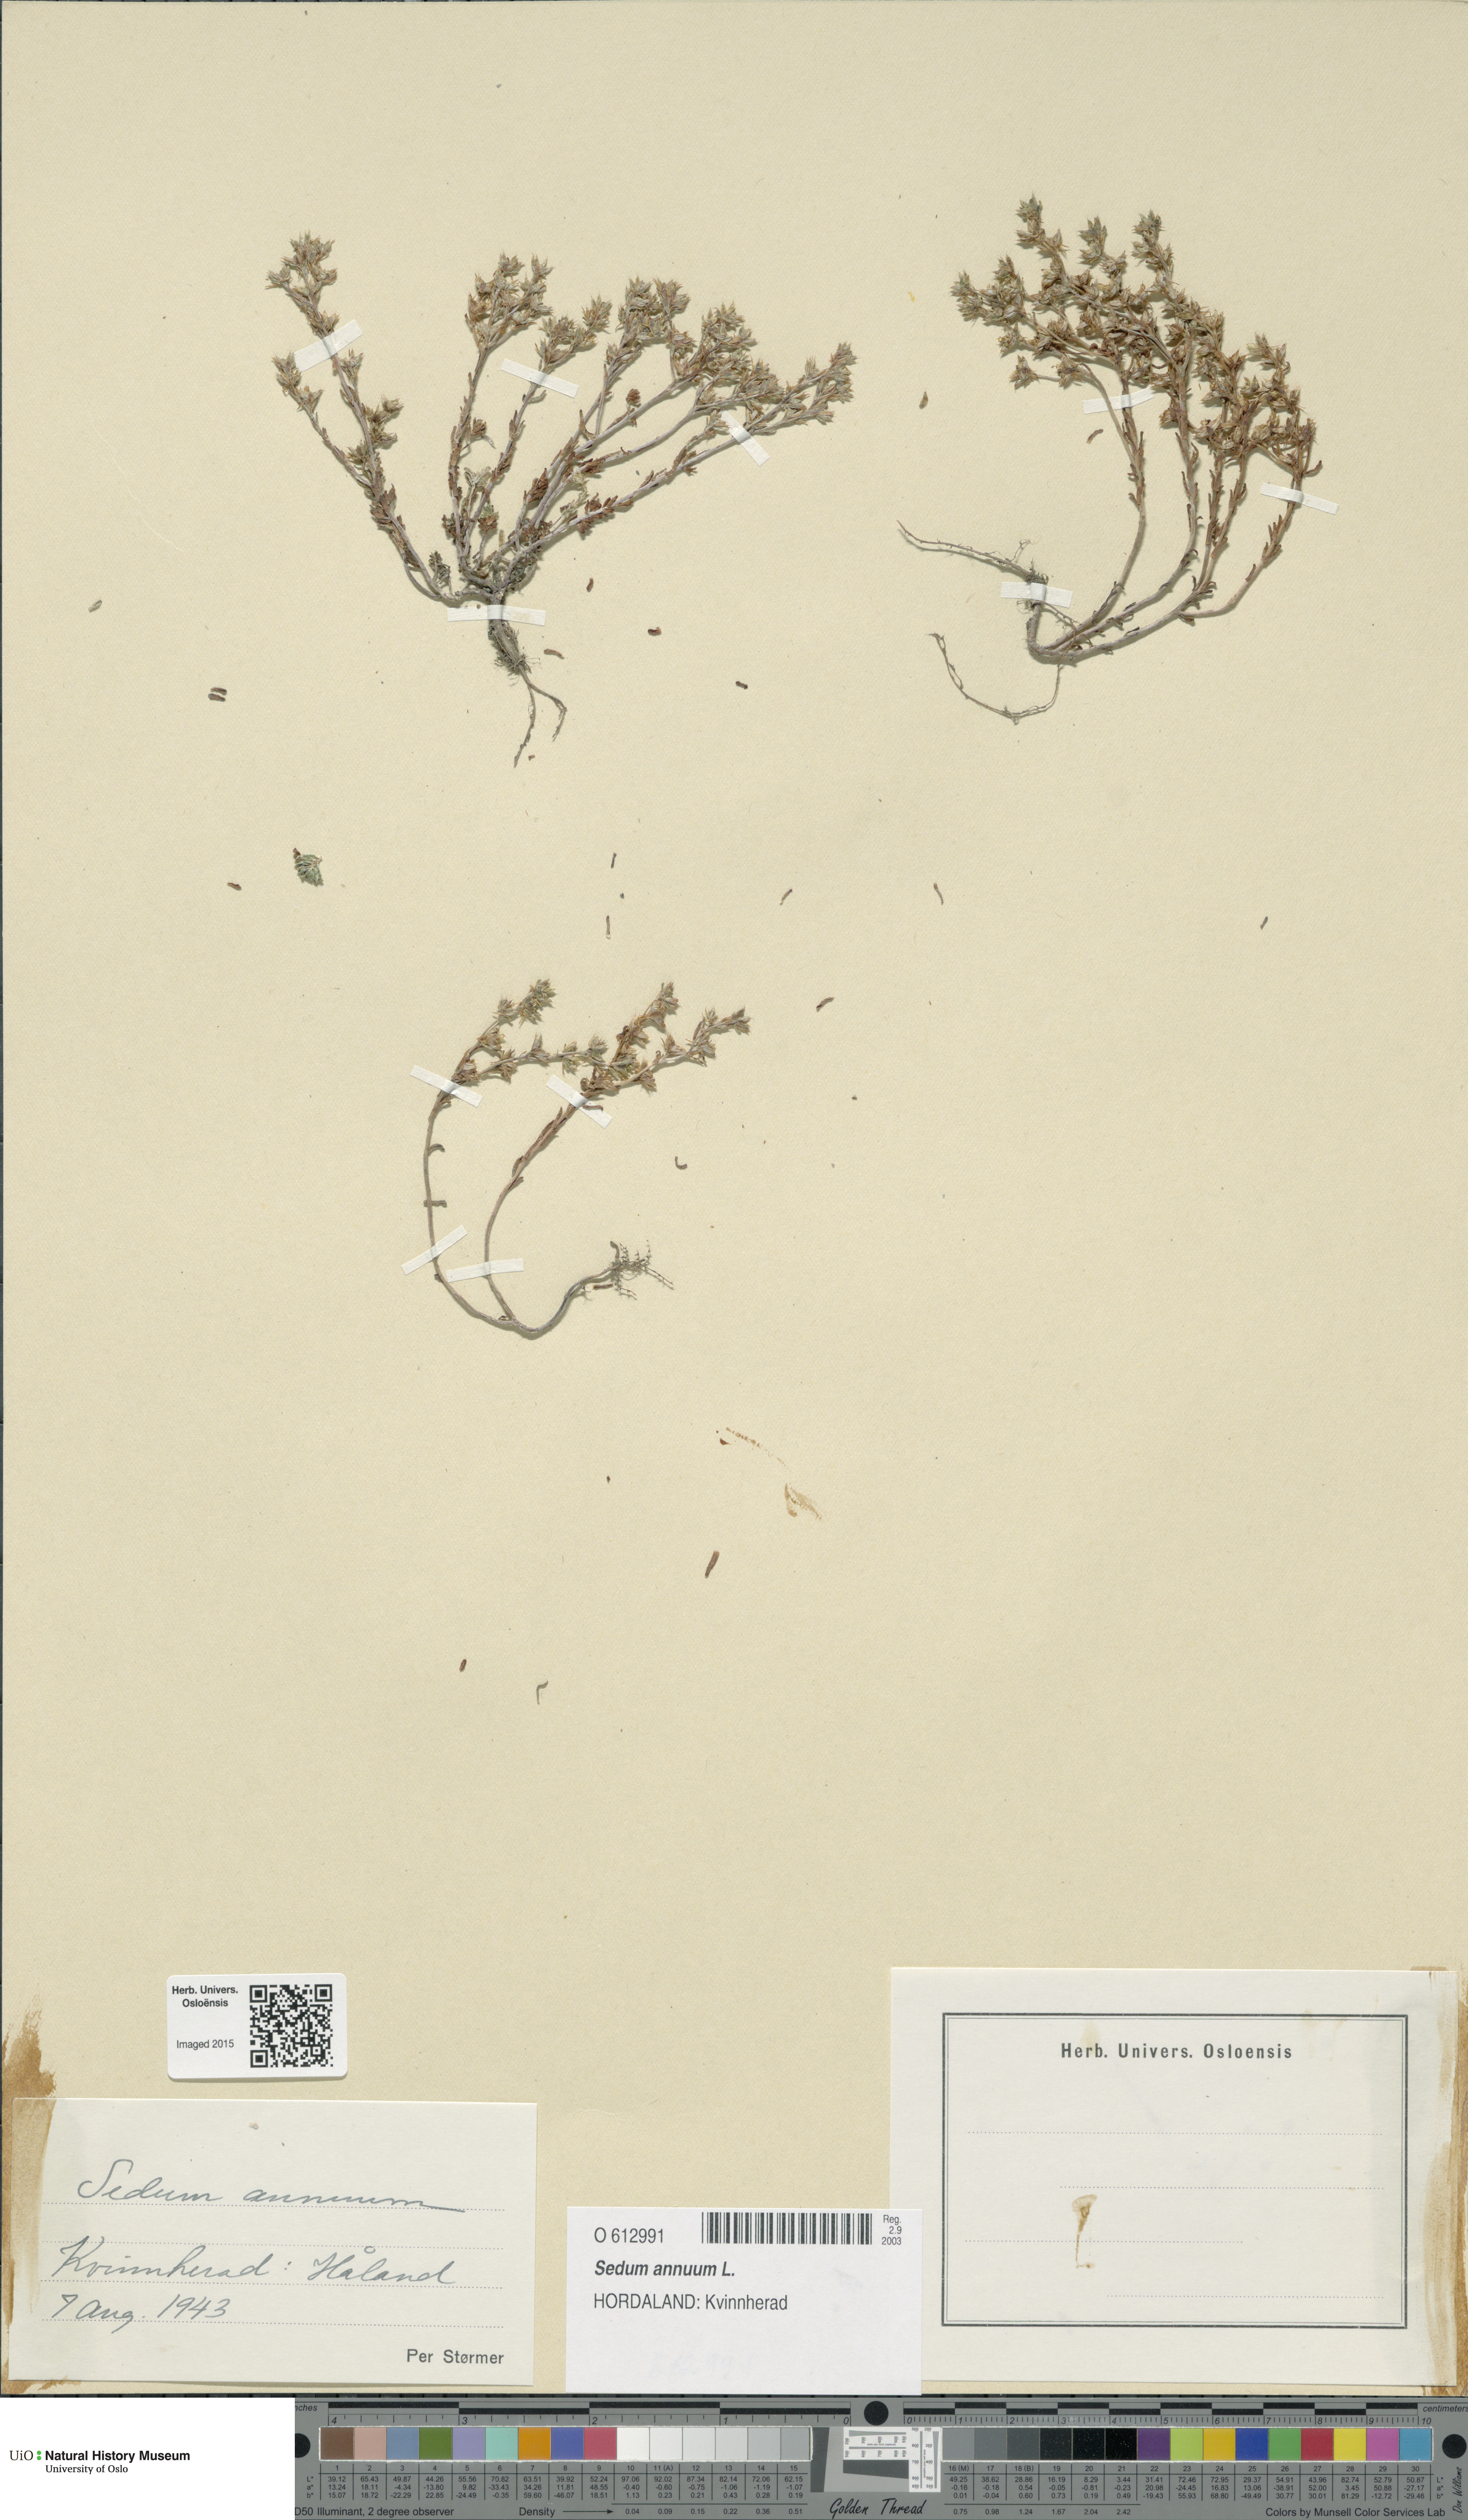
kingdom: Plantae
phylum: Tracheophyta
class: Magnoliopsida
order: Saxifragales
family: Crassulaceae
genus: Sedum
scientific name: Sedum annuum
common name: Annual stonecrop
